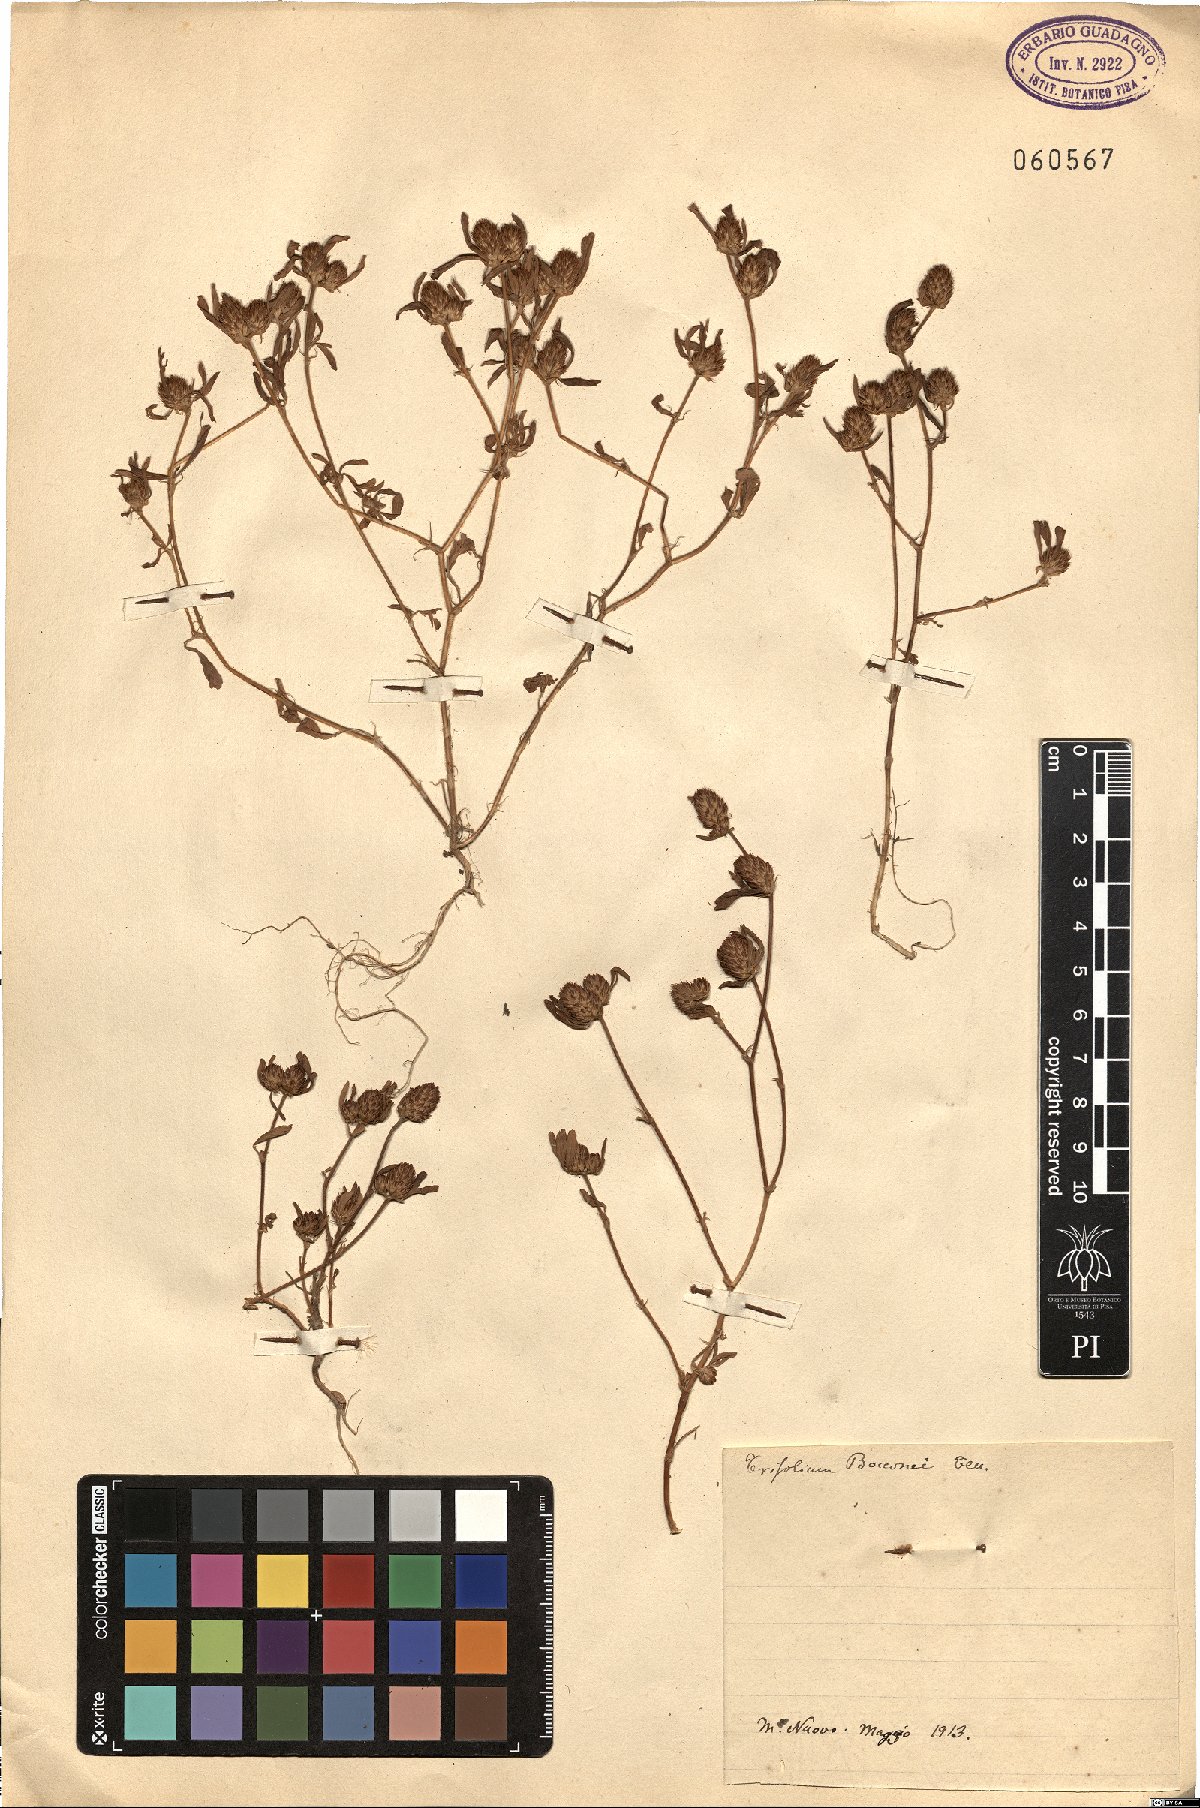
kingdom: Plantae
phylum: Tracheophyta
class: Magnoliopsida
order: Fabales
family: Fabaceae
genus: Trifolium
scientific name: Trifolium bocconei
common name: Twin-headed clover
